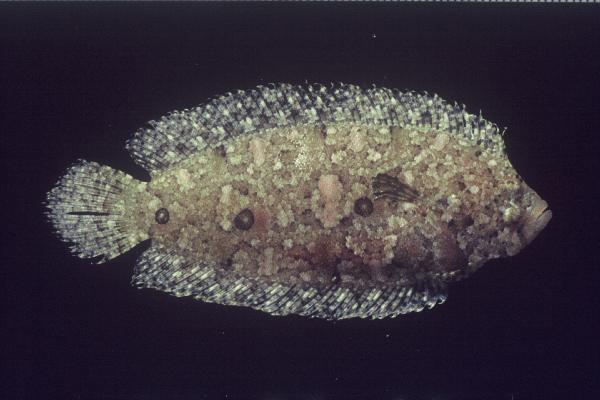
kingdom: Animalia
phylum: Chordata
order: Pleuronectiformes
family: Samaridae
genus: Samariscus
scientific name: Samariscus triocellatus
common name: Three-spot righteye flounder
